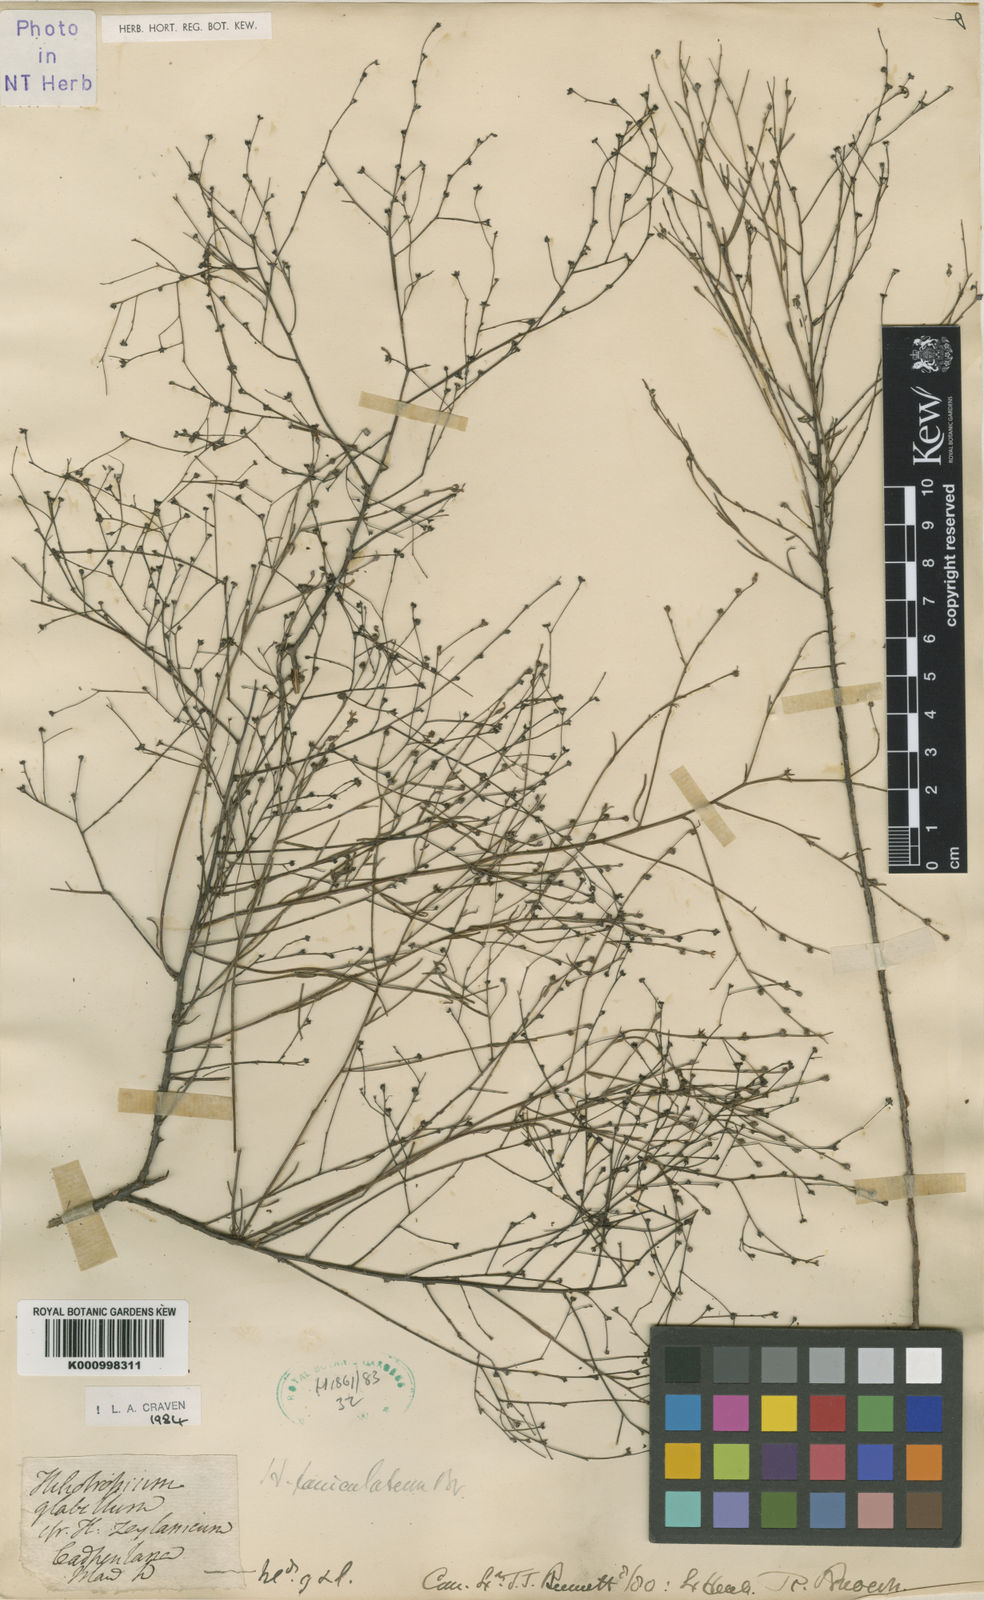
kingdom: Plantae
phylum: Tracheophyta
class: Magnoliopsida
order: Boraginales
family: Heliotropiaceae
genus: Euploca
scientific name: Euploca glabella
